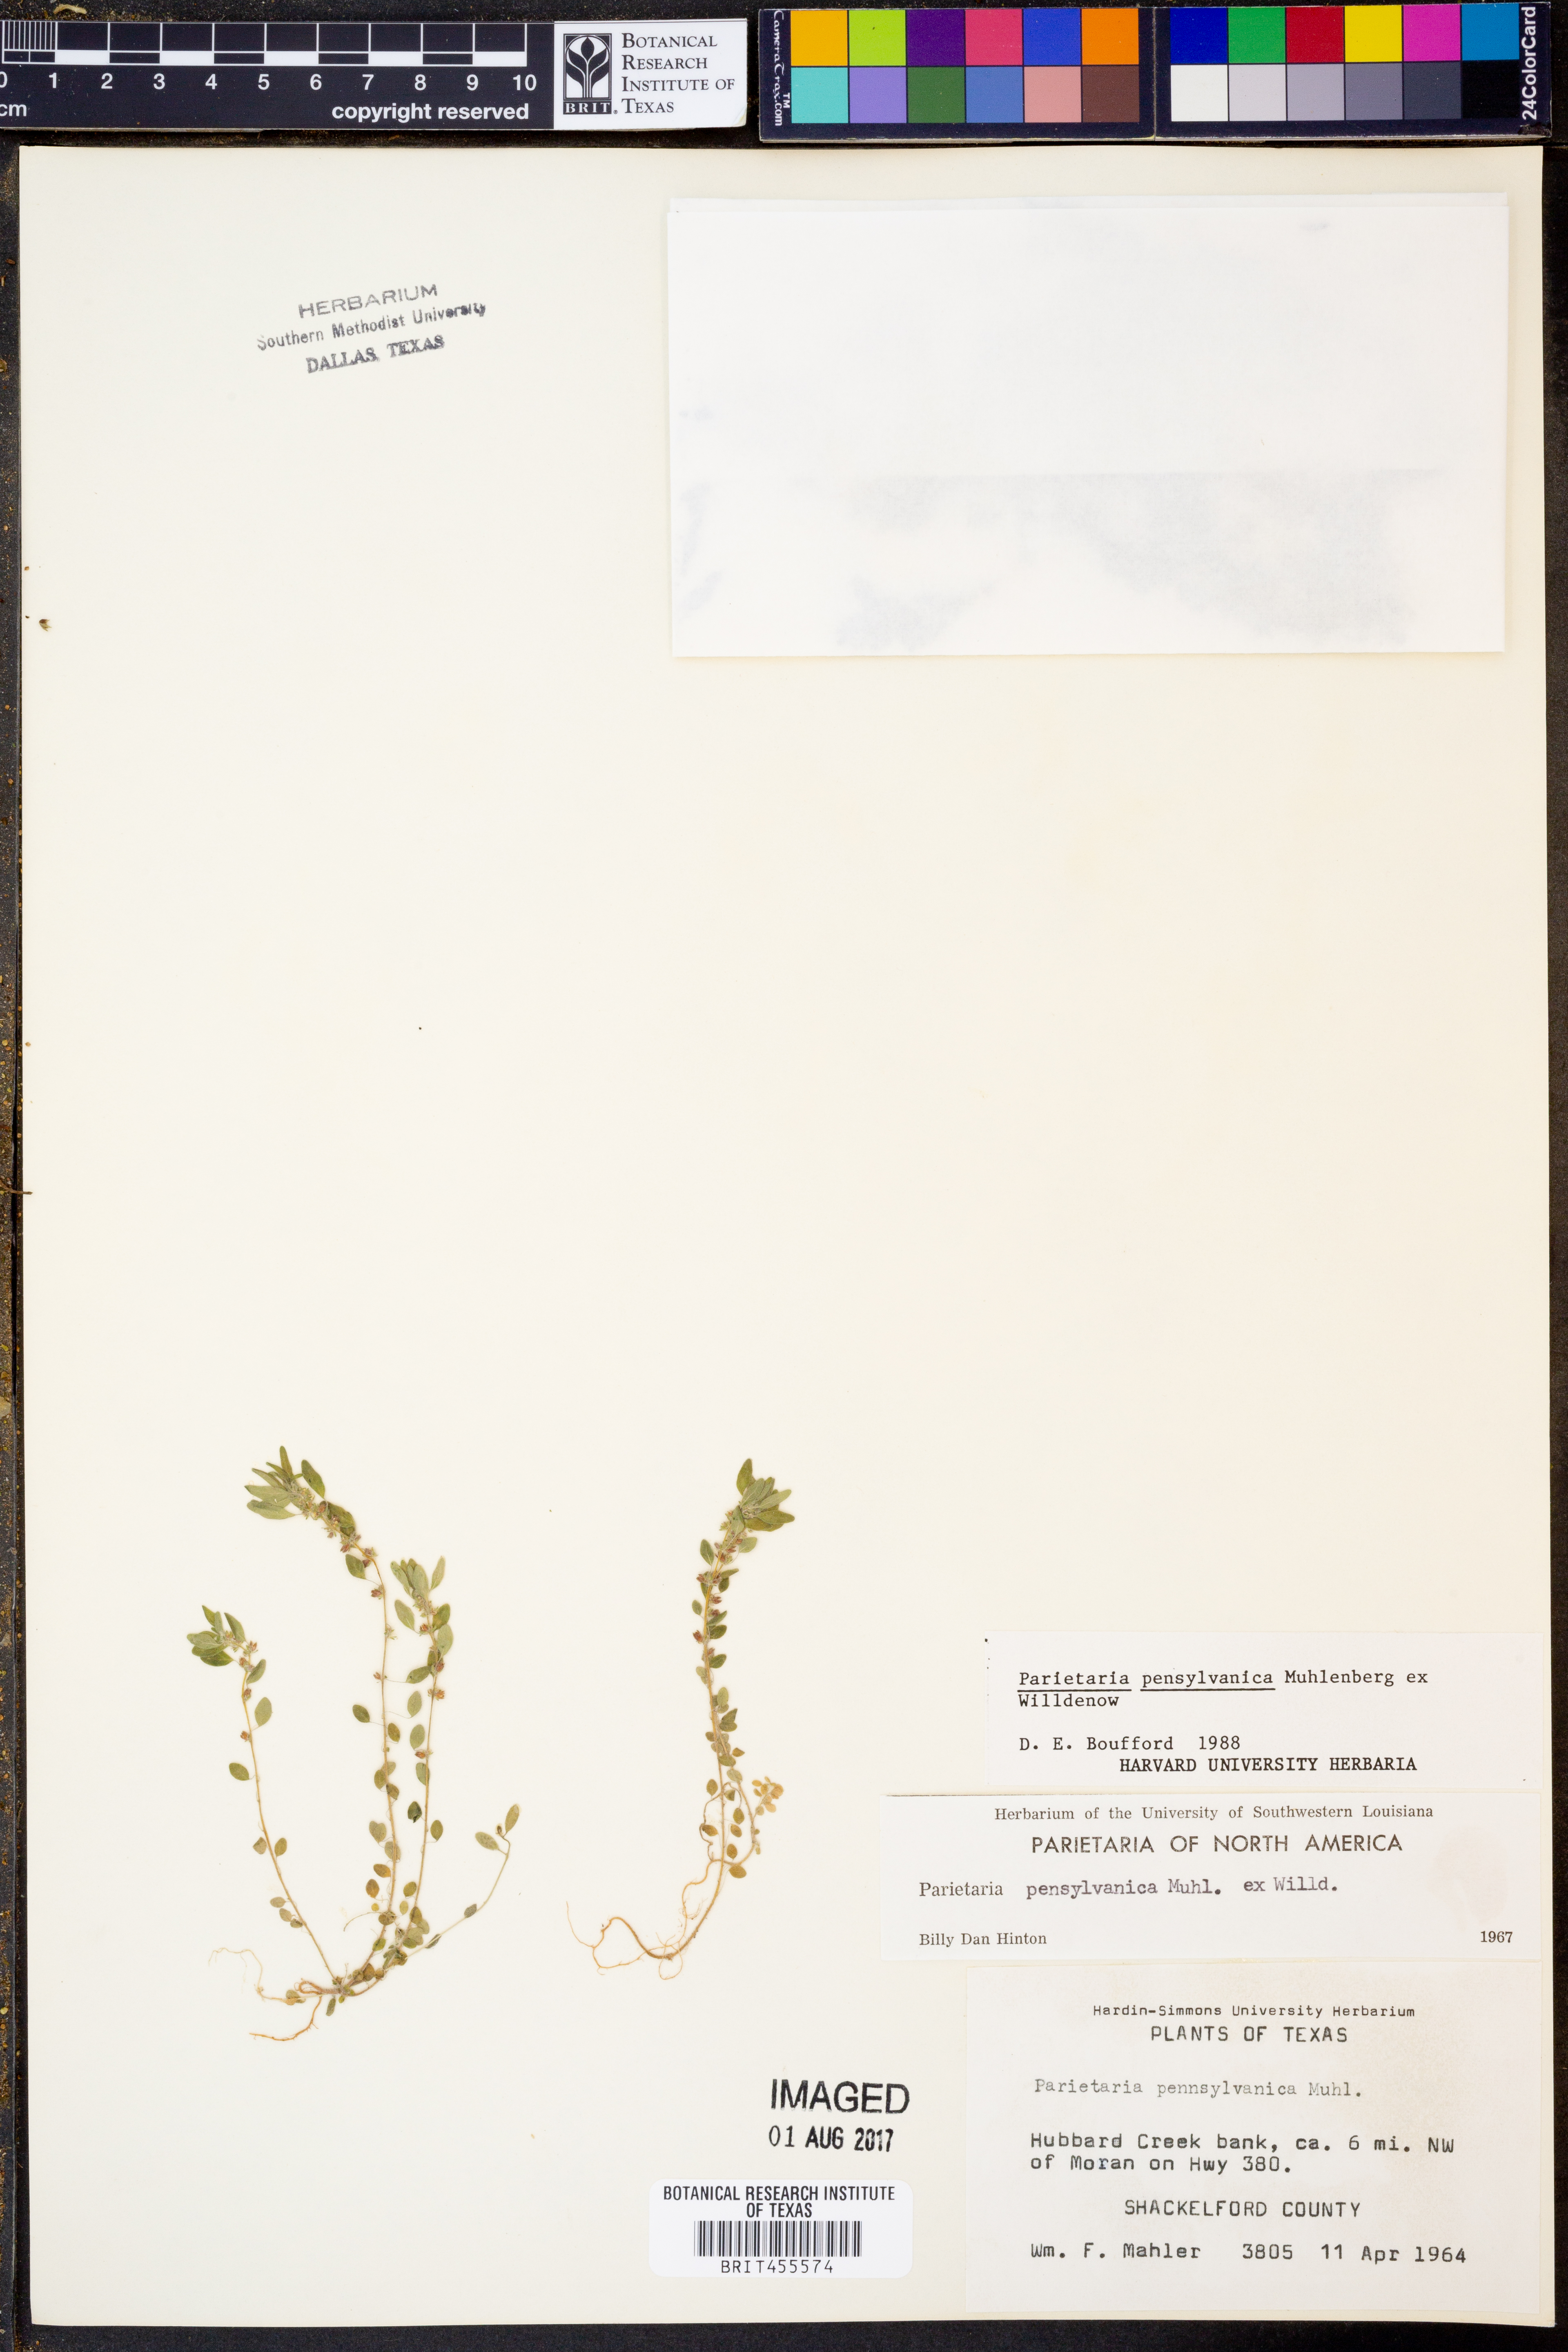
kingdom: Plantae
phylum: Tracheophyta
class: Magnoliopsida
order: Rosales
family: Urticaceae
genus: Parietaria
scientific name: Parietaria pensylvanica
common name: Pennsylvania pellitory
